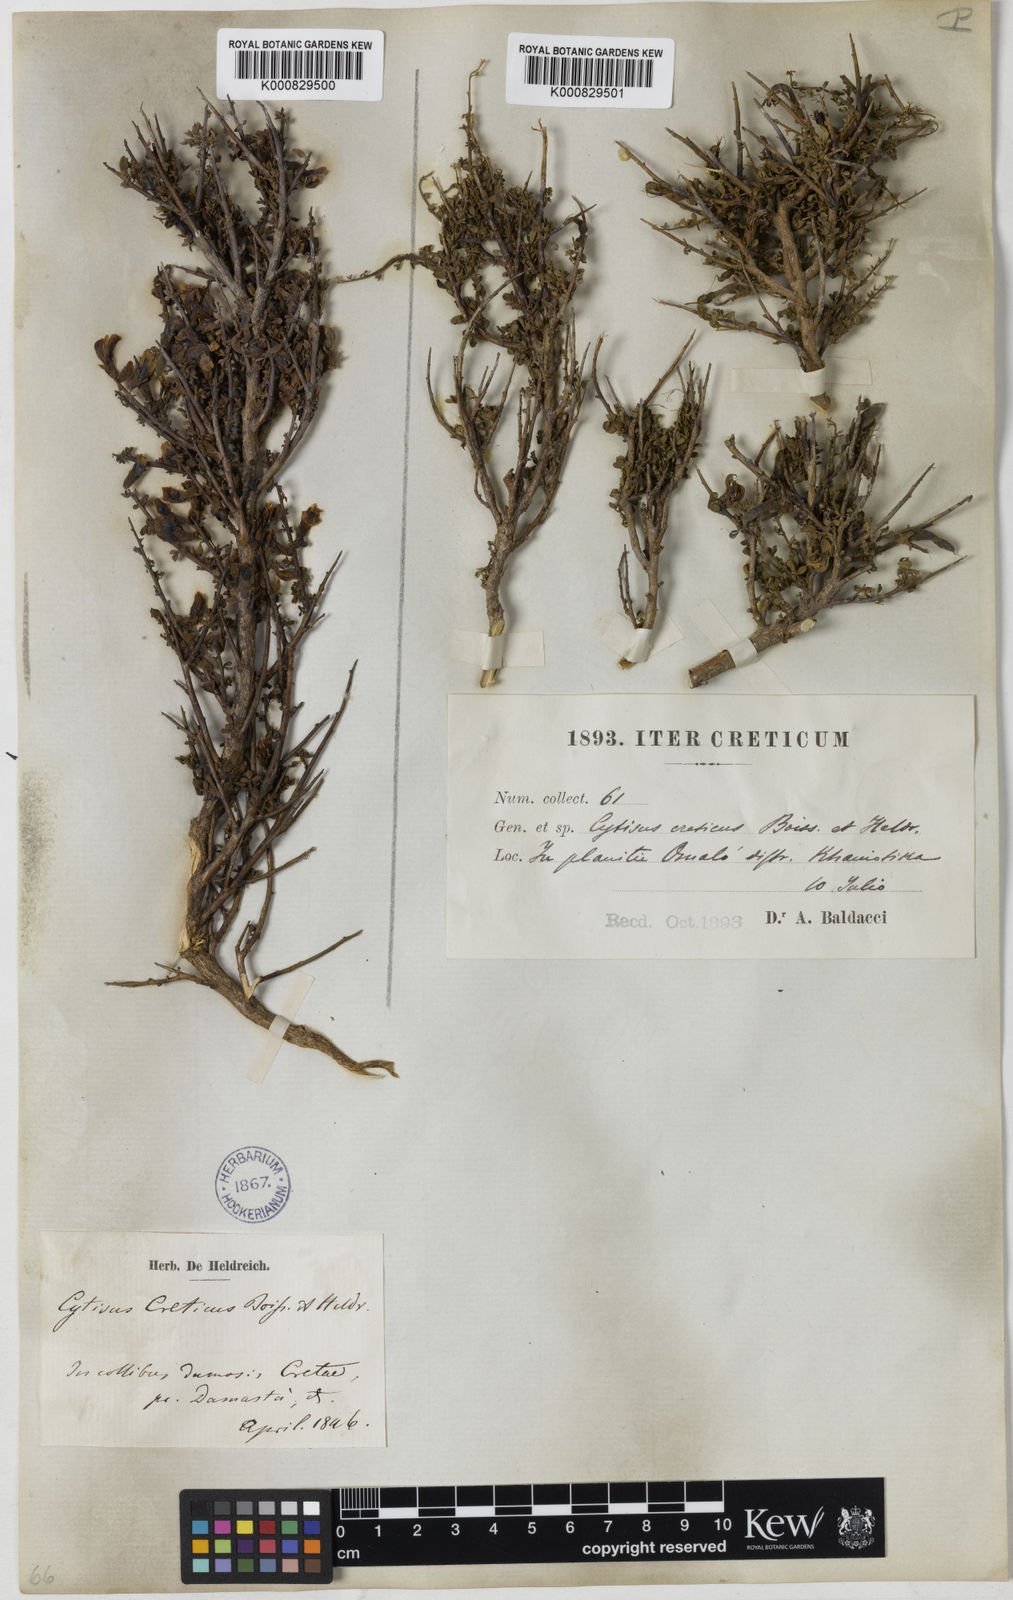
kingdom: Plantae
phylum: Tracheophyta
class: Magnoliopsida
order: Fabales
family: Fabaceae
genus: Chamaecytisus
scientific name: Chamaecytisus spinescens
